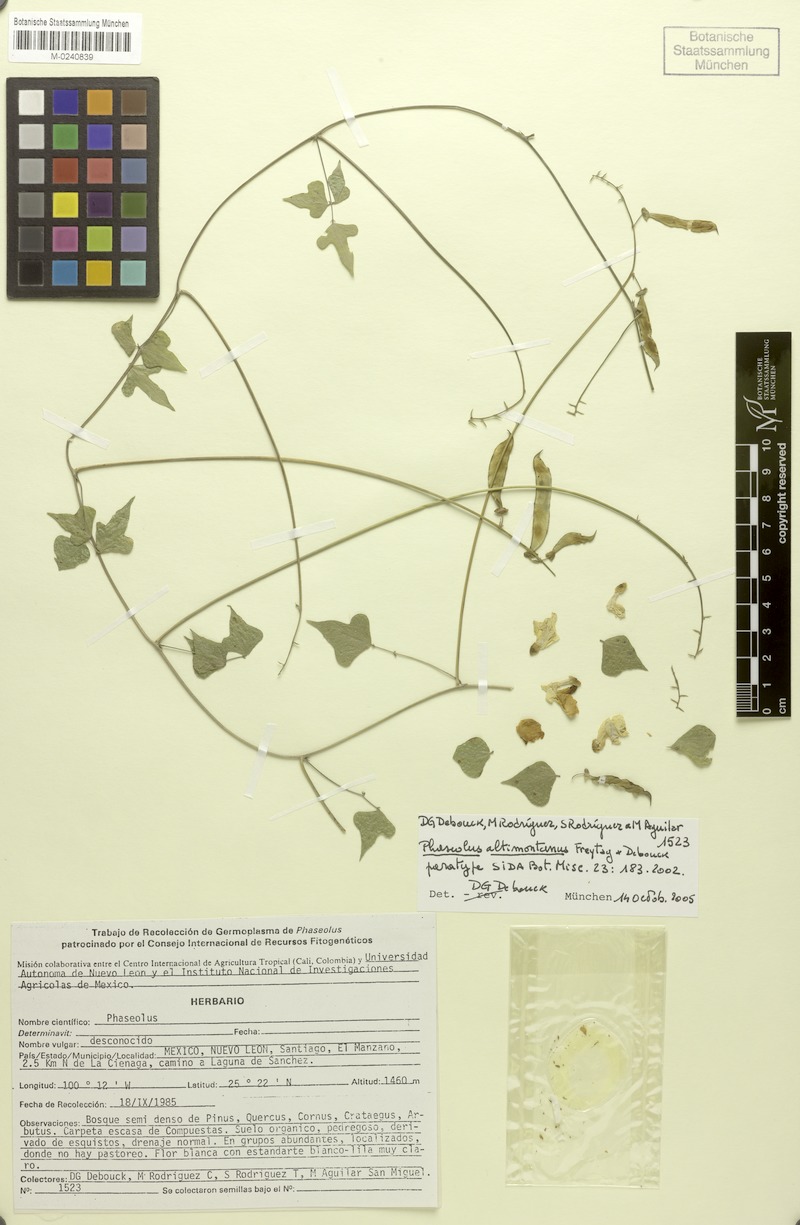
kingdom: Plantae
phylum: Tracheophyta
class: Magnoliopsida
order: Fabales
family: Fabaceae
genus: Phaseolus
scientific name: Phaseolus altimontanus
